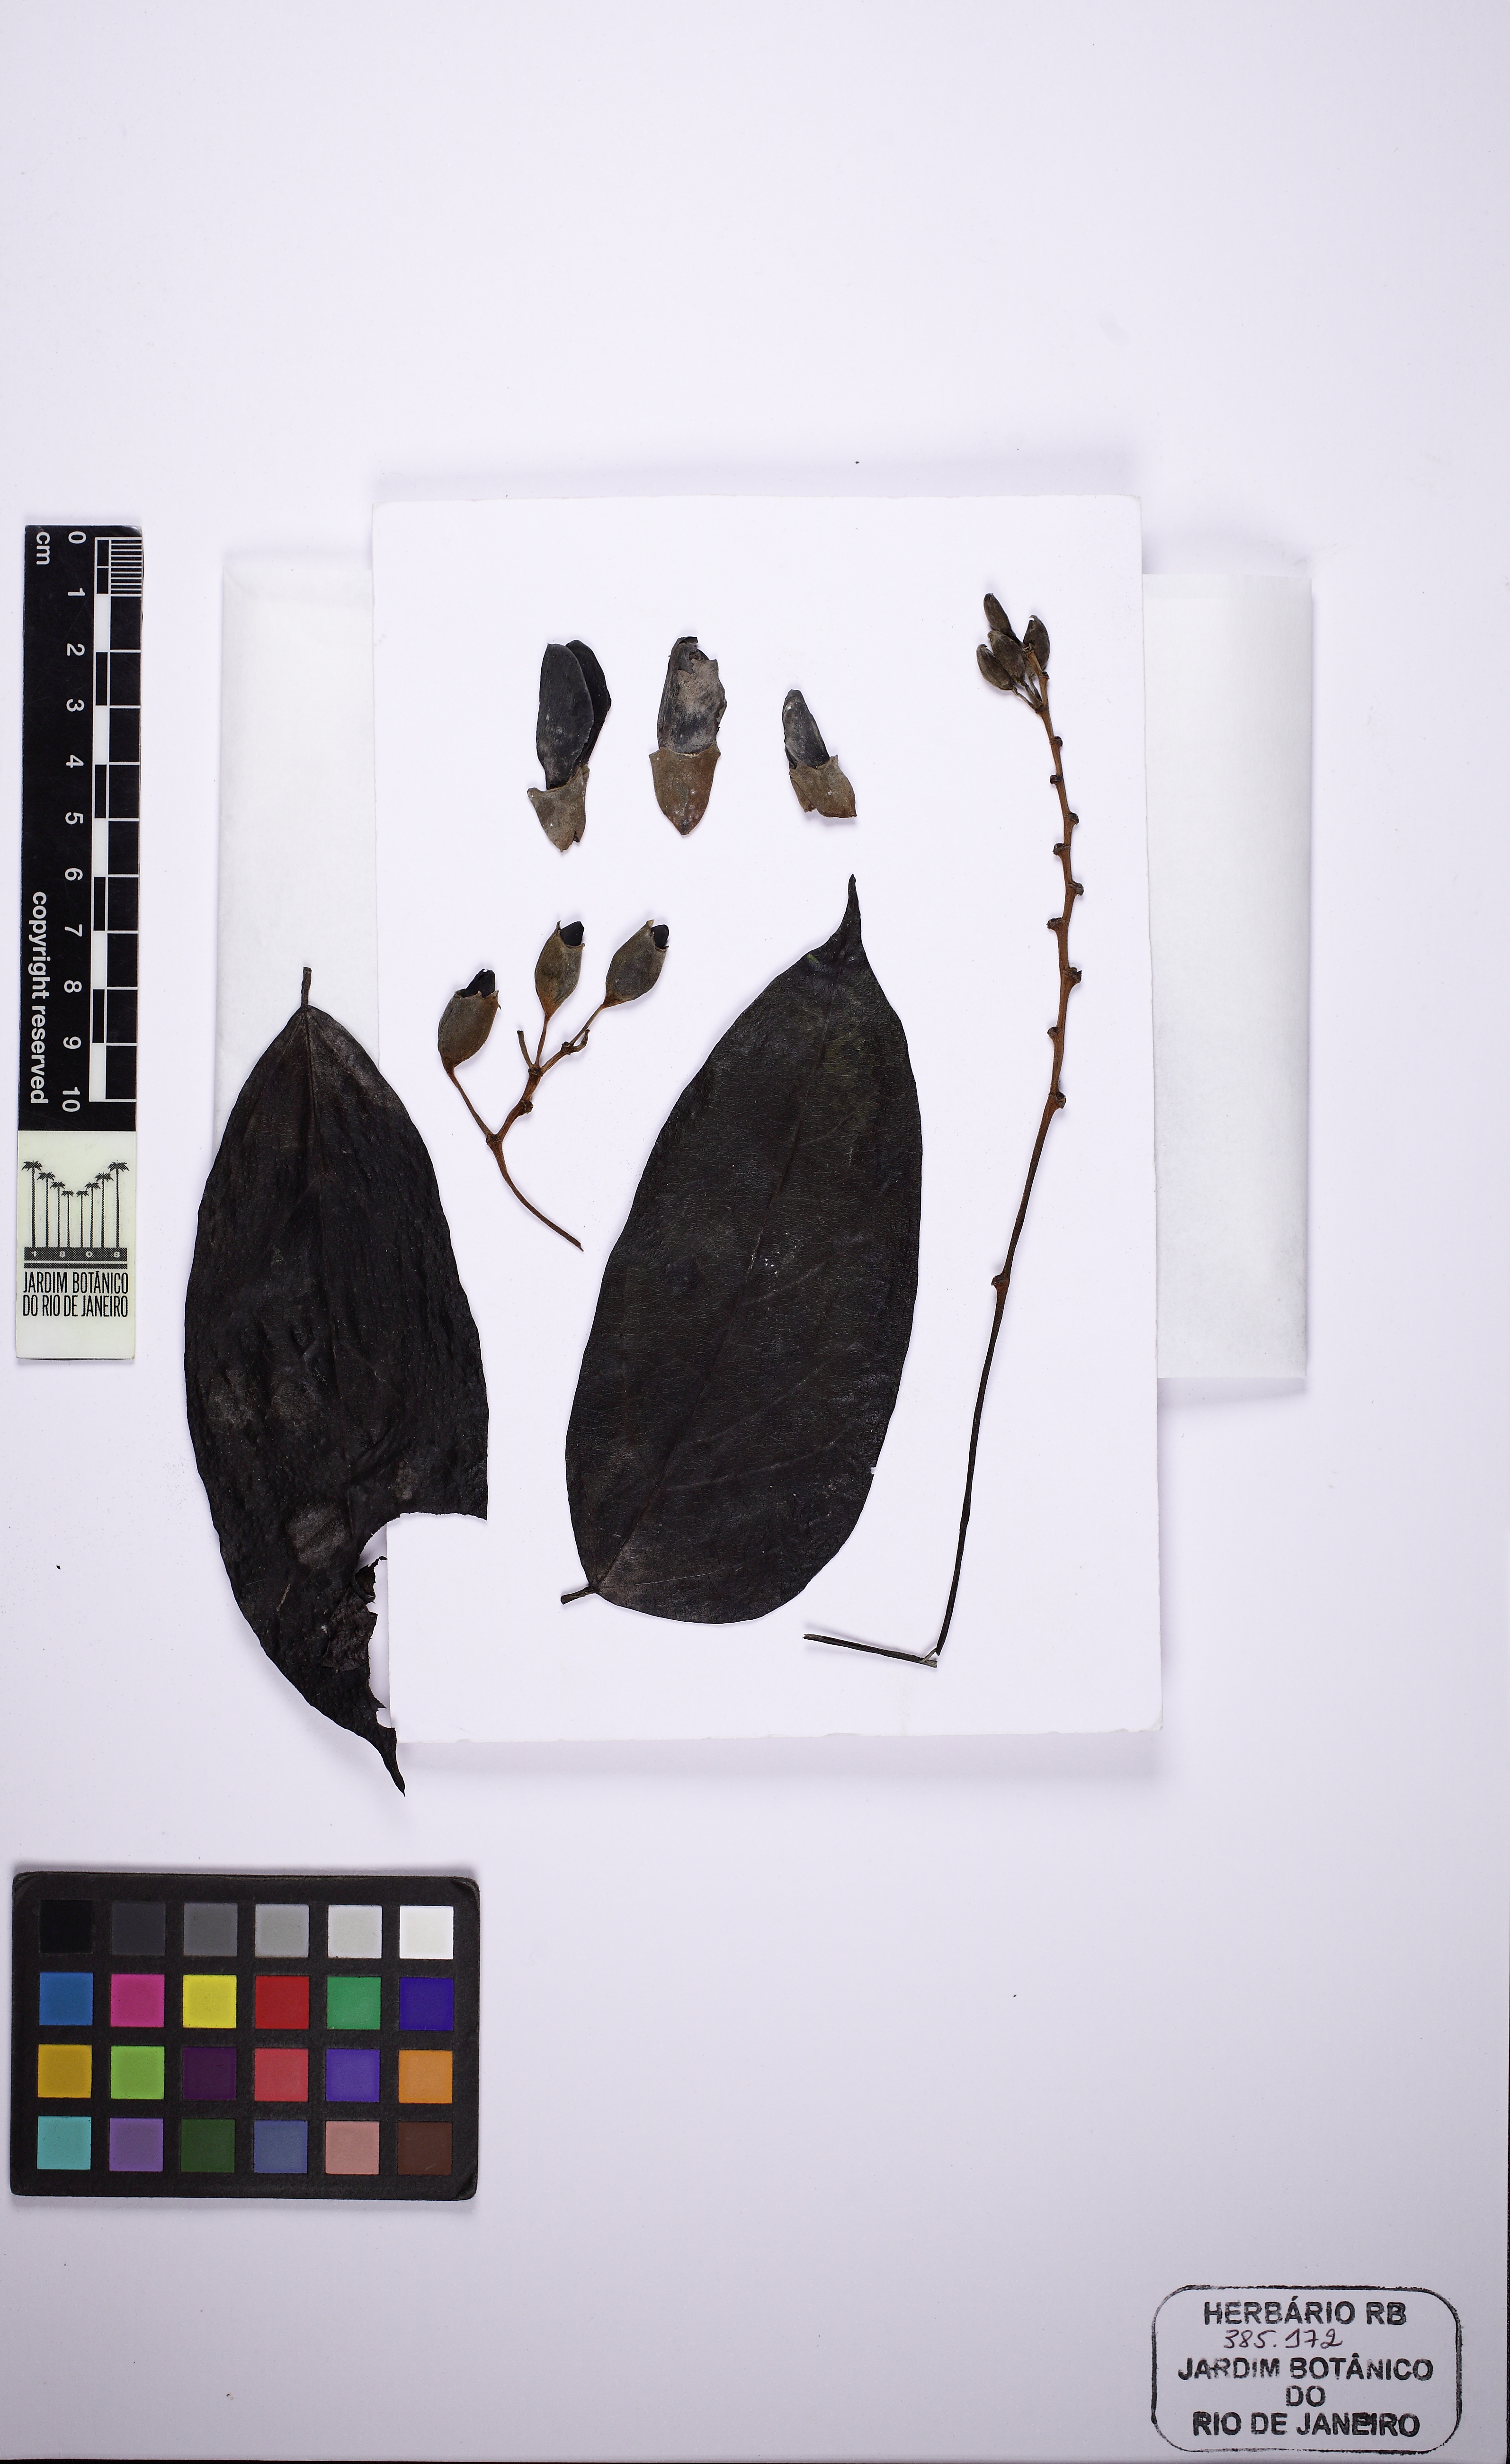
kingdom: Plantae
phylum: Tracheophyta
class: Magnoliopsida
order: Fabales
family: Fabaceae
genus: Mucuna
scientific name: Mucuna urens
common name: Red hamburger bean
